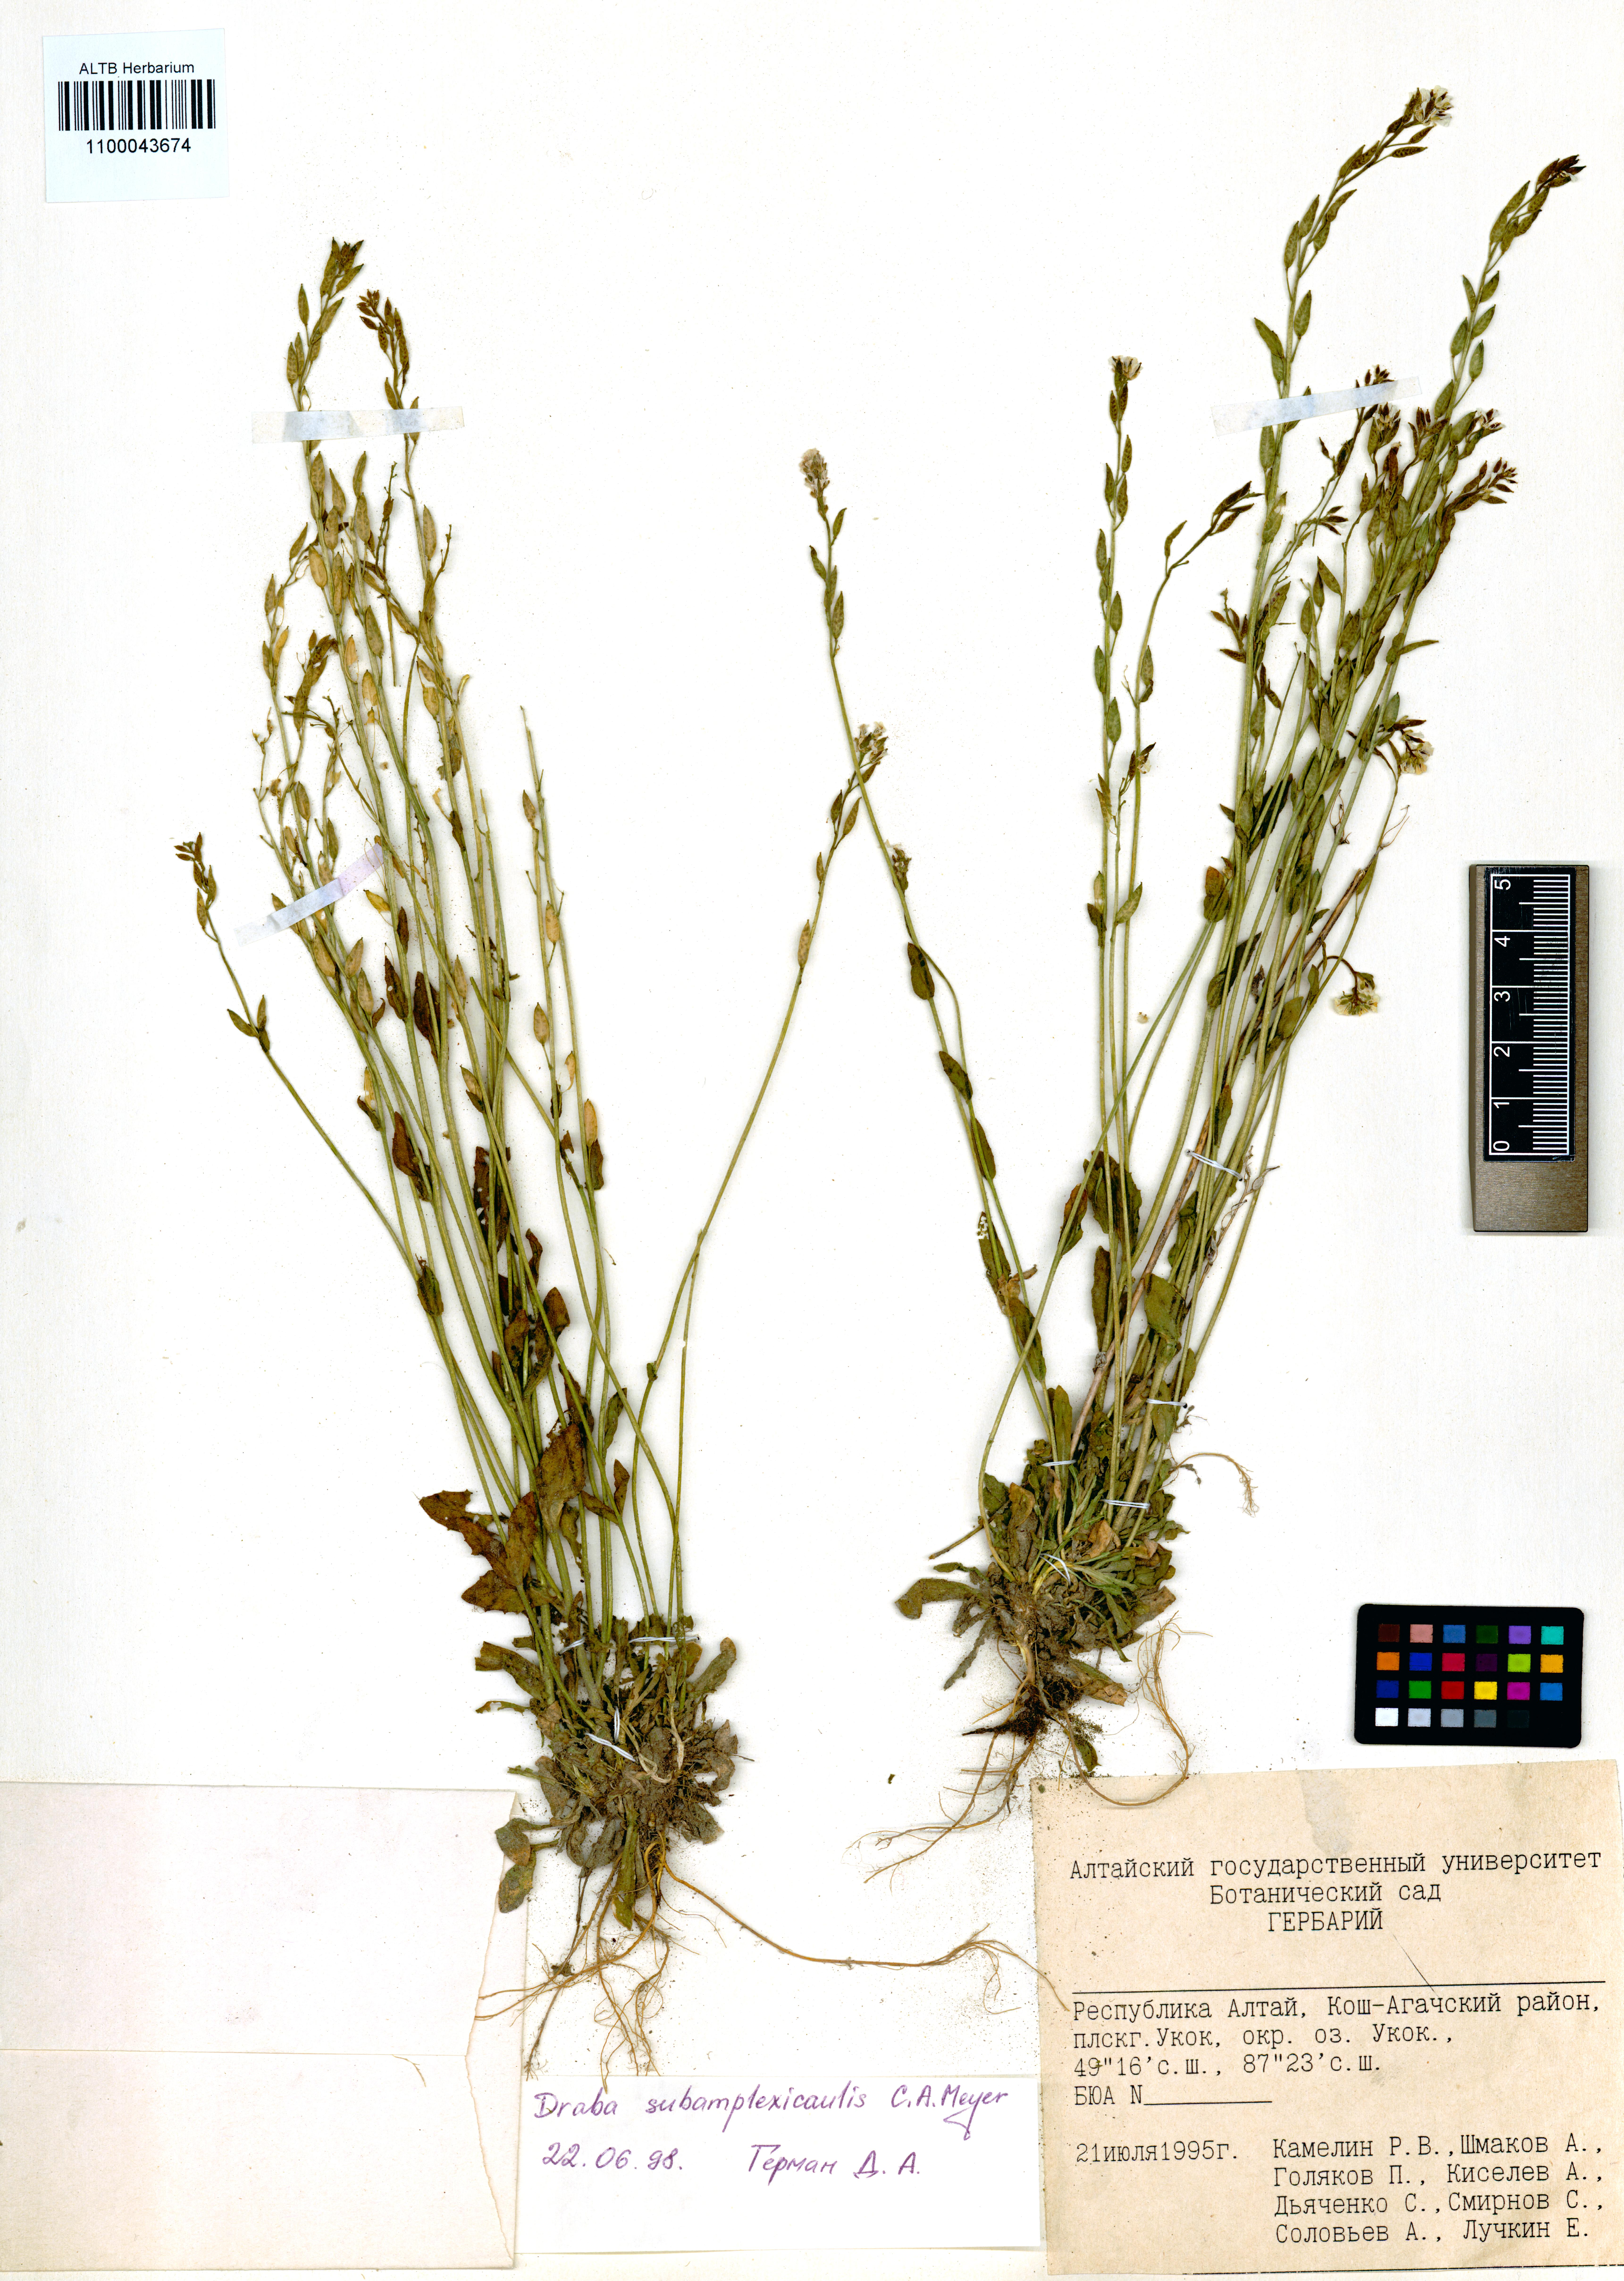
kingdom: Plantae
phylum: Tracheophyta
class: Magnoliopsida
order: Brassicales
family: Brassicaceae
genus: Draba
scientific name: Draba subamplexicaulis
